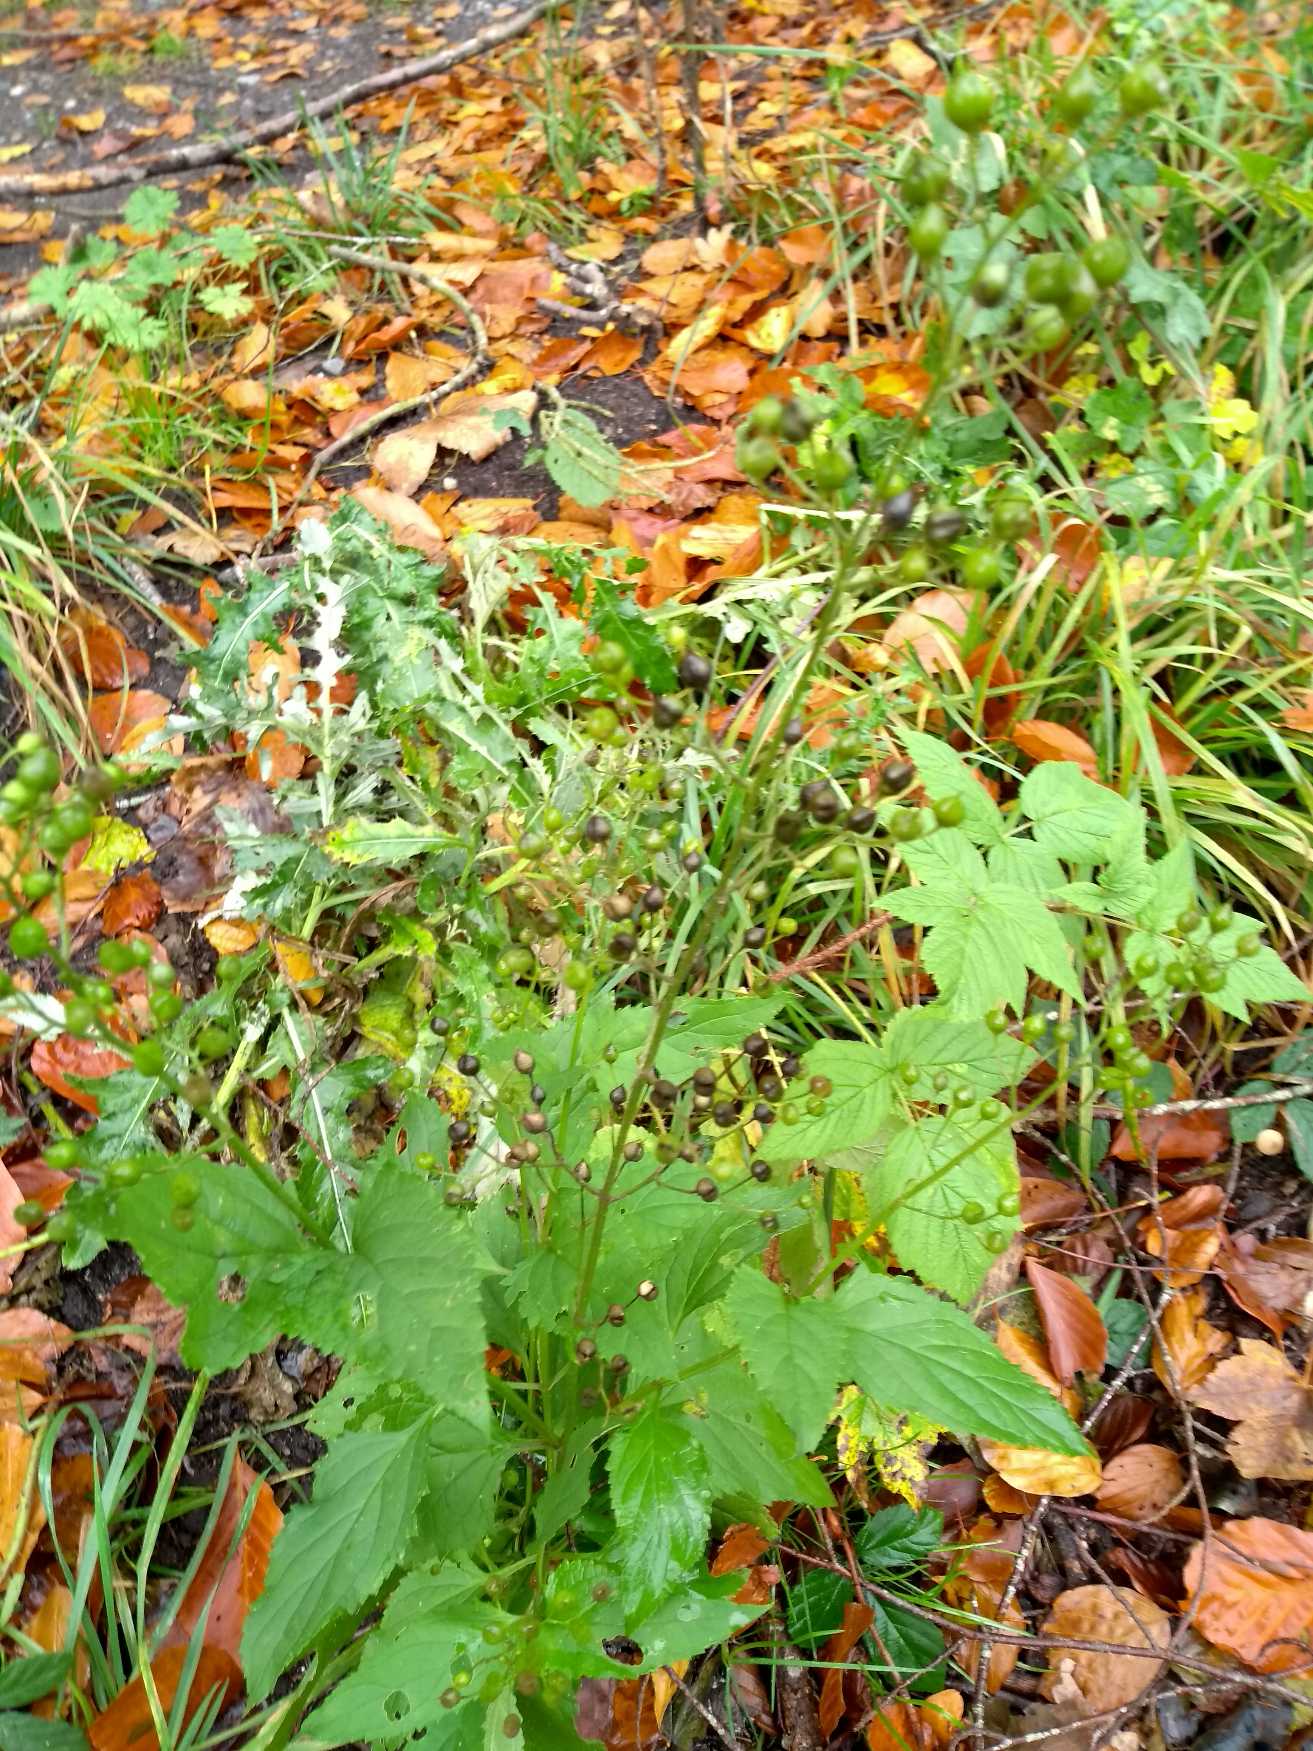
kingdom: Plantae
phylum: Tracheophyta
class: Magnoliopsida
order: Lamiales
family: Scrophulariaceae
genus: Scrophularia
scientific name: Scrophularia nodosa
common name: Knoldet brunrod
